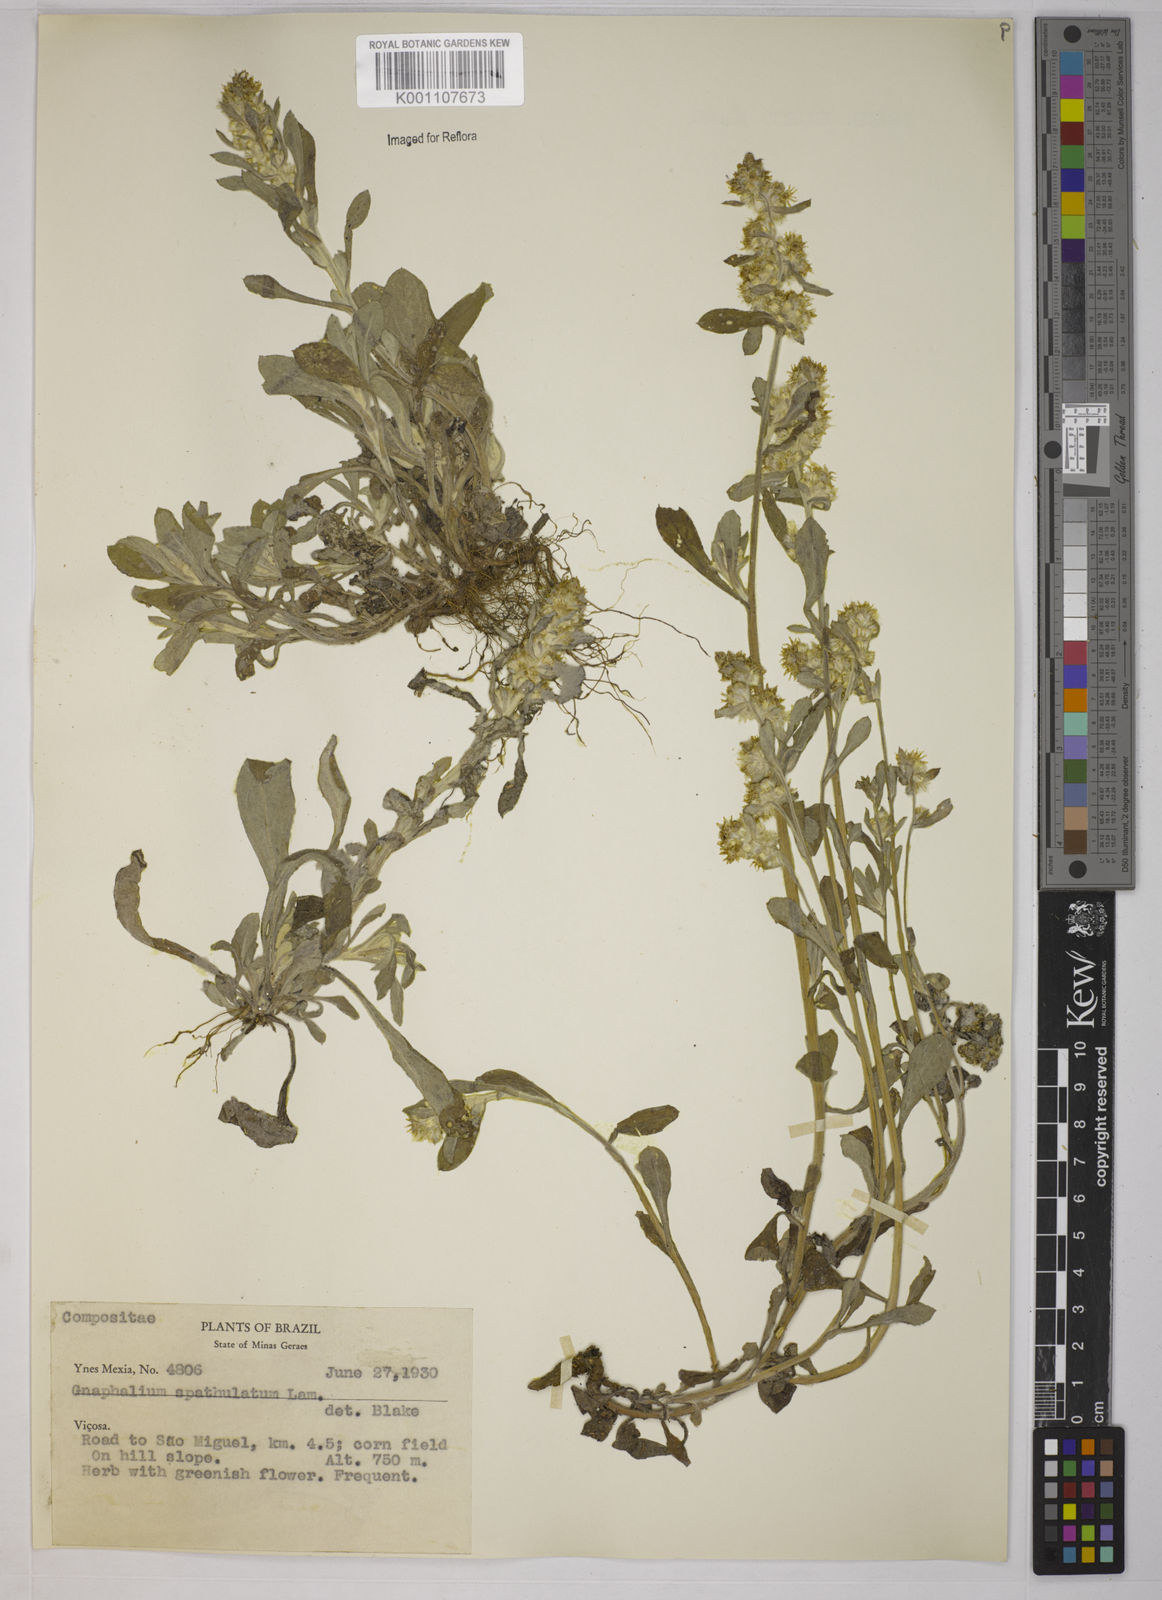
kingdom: Plantae
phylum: Tracheophyta
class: Magnoliopsida
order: Asterales
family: Asteraceae
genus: Gamochaeta
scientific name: Gamochaeta pensylvanica
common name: Pennsylvania everlasting
